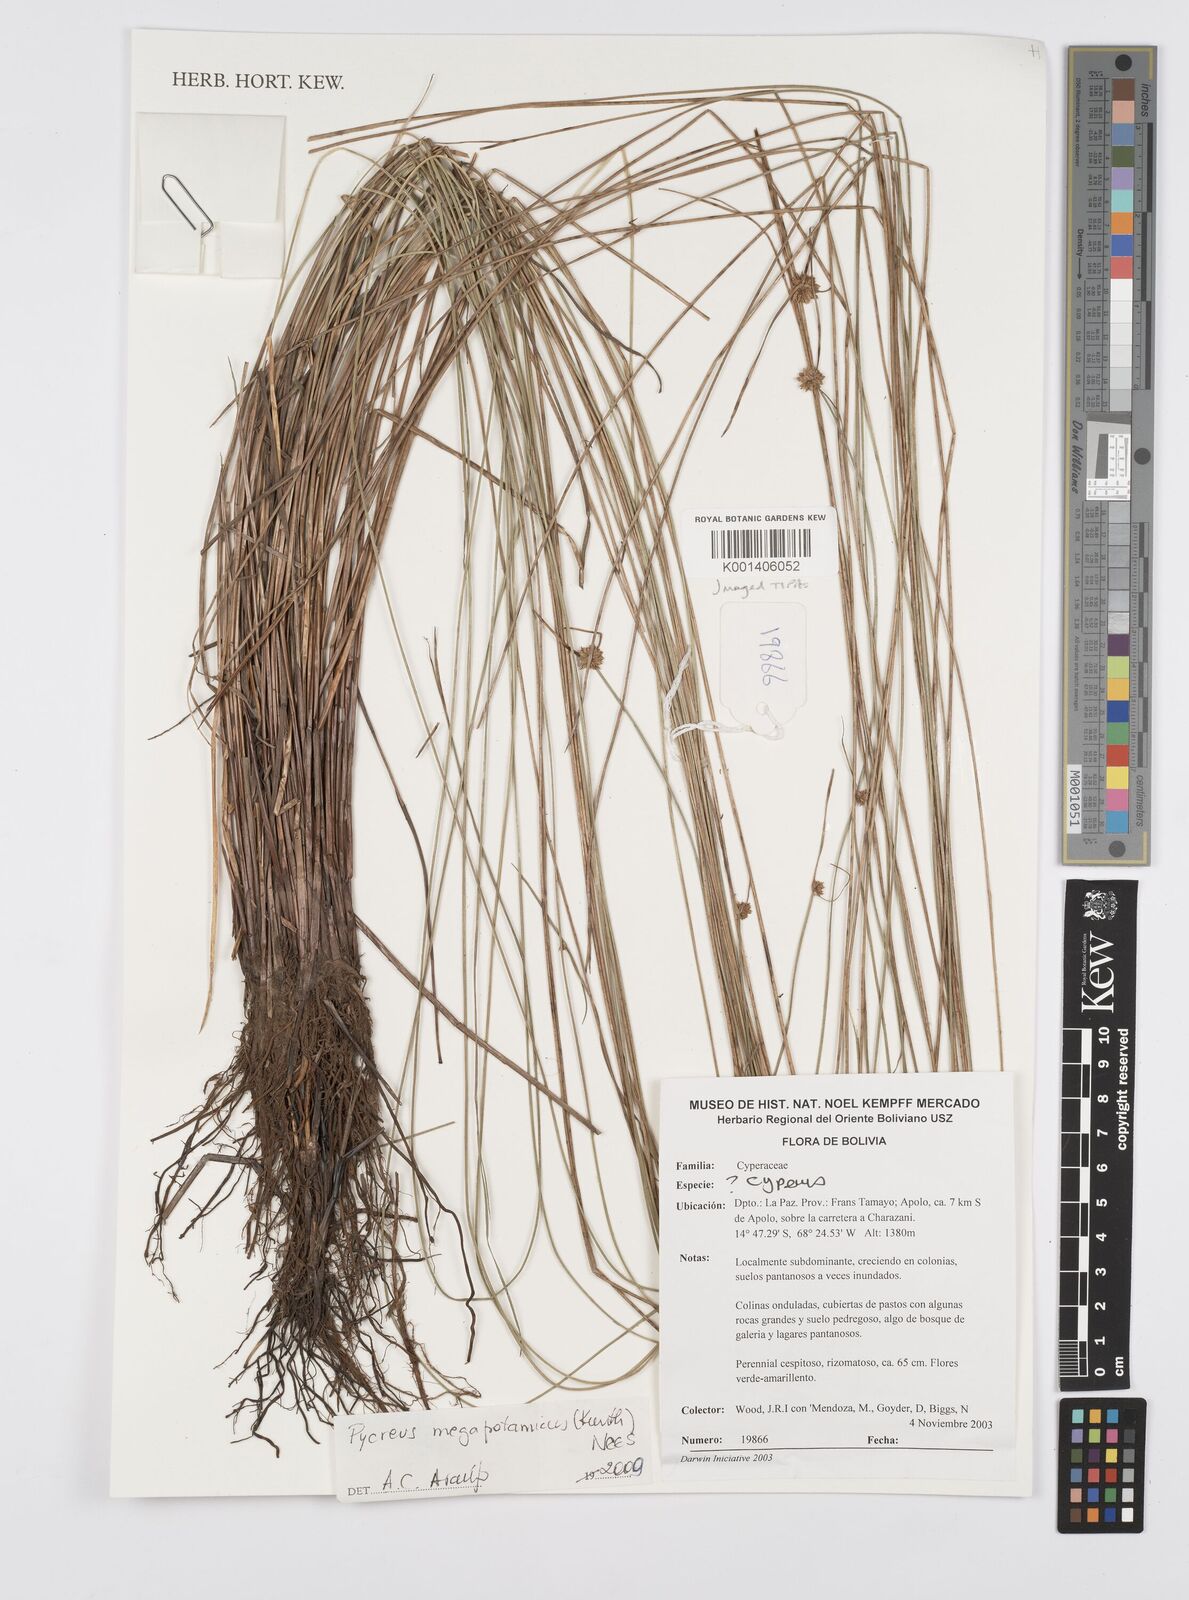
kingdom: Plantae
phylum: Tracheophyta
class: Liliopsida
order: Poales
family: Cyperaceae
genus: Cyperus
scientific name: Cyperus megapotamicus
